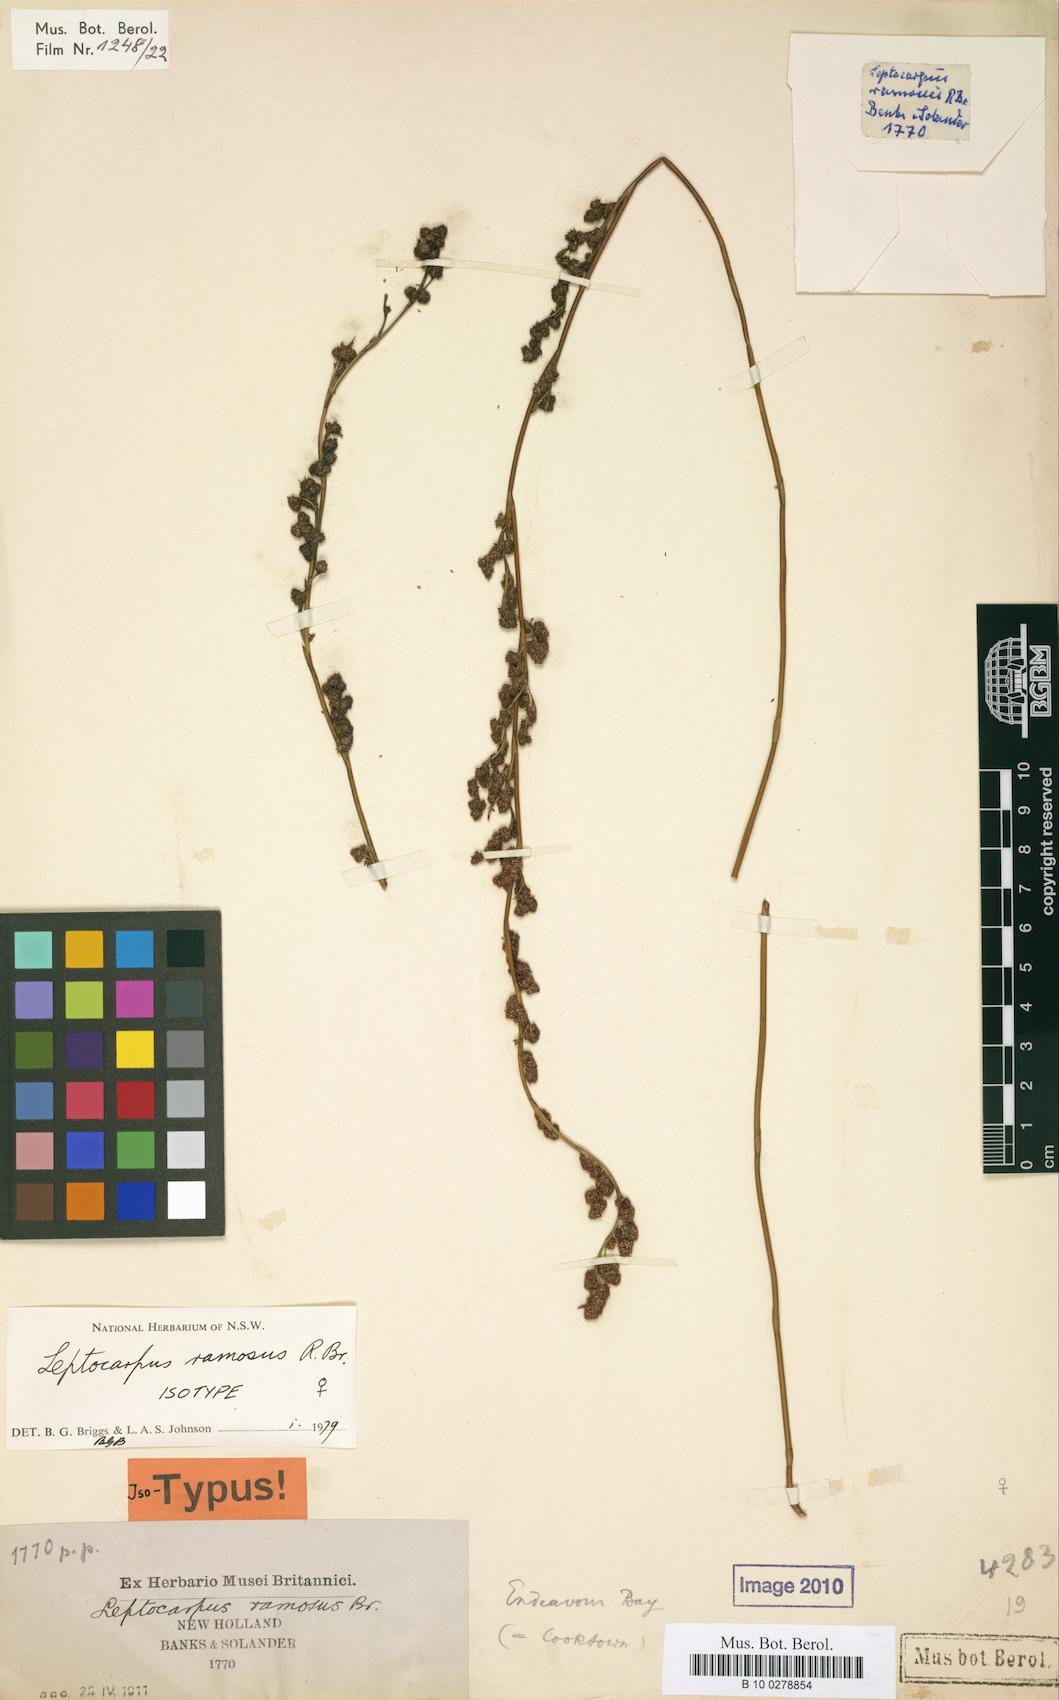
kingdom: Plantae
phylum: Tracheophyta
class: Liliopsida
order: Poales
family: Restionaceae
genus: Dapsilanthus
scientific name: Dapsilanthus ramosus
